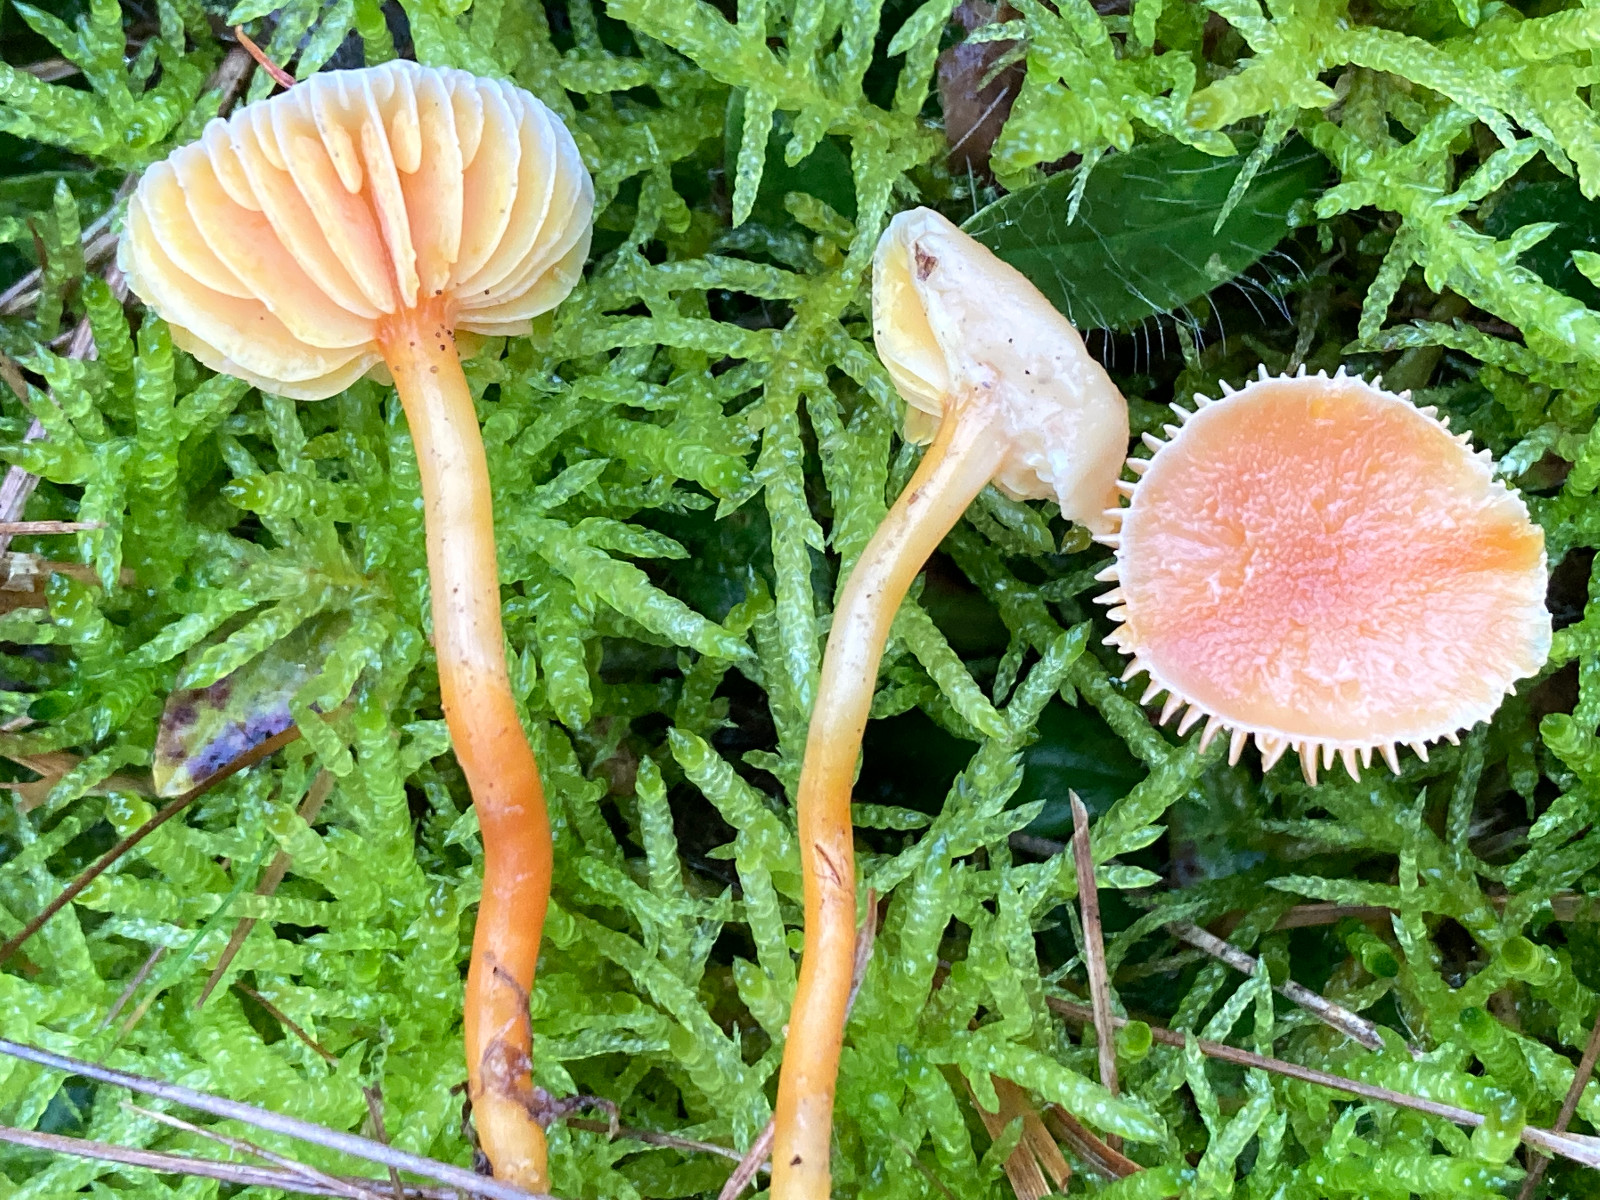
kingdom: Fungi
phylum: Basidiomycota
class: Agaricomycetes
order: Agaricales
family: Hygrophoraceae
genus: Gliophorus
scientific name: Gliophorus laetus
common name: brusk-vokshat
